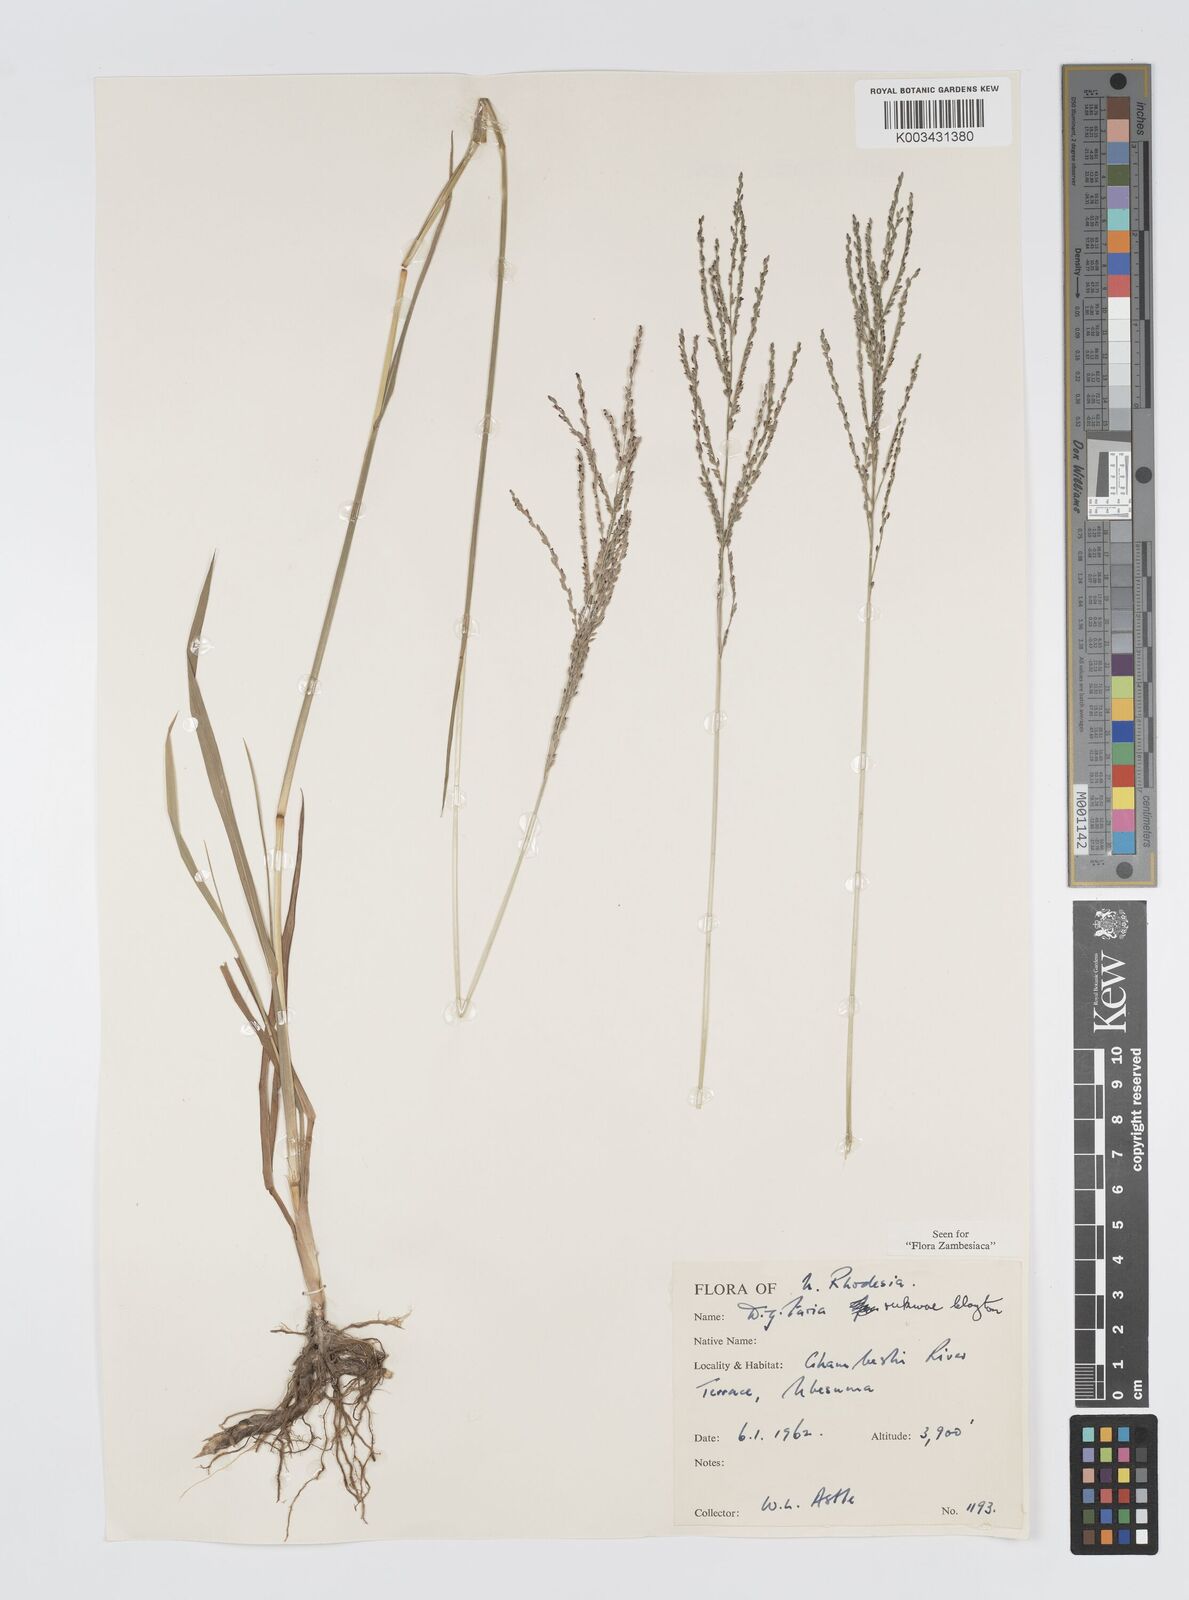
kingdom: Plantae
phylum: Tracheophyta
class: Liliopsida
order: Poales
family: Poaceae
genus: Digitaria
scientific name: Digitaria rukwae
